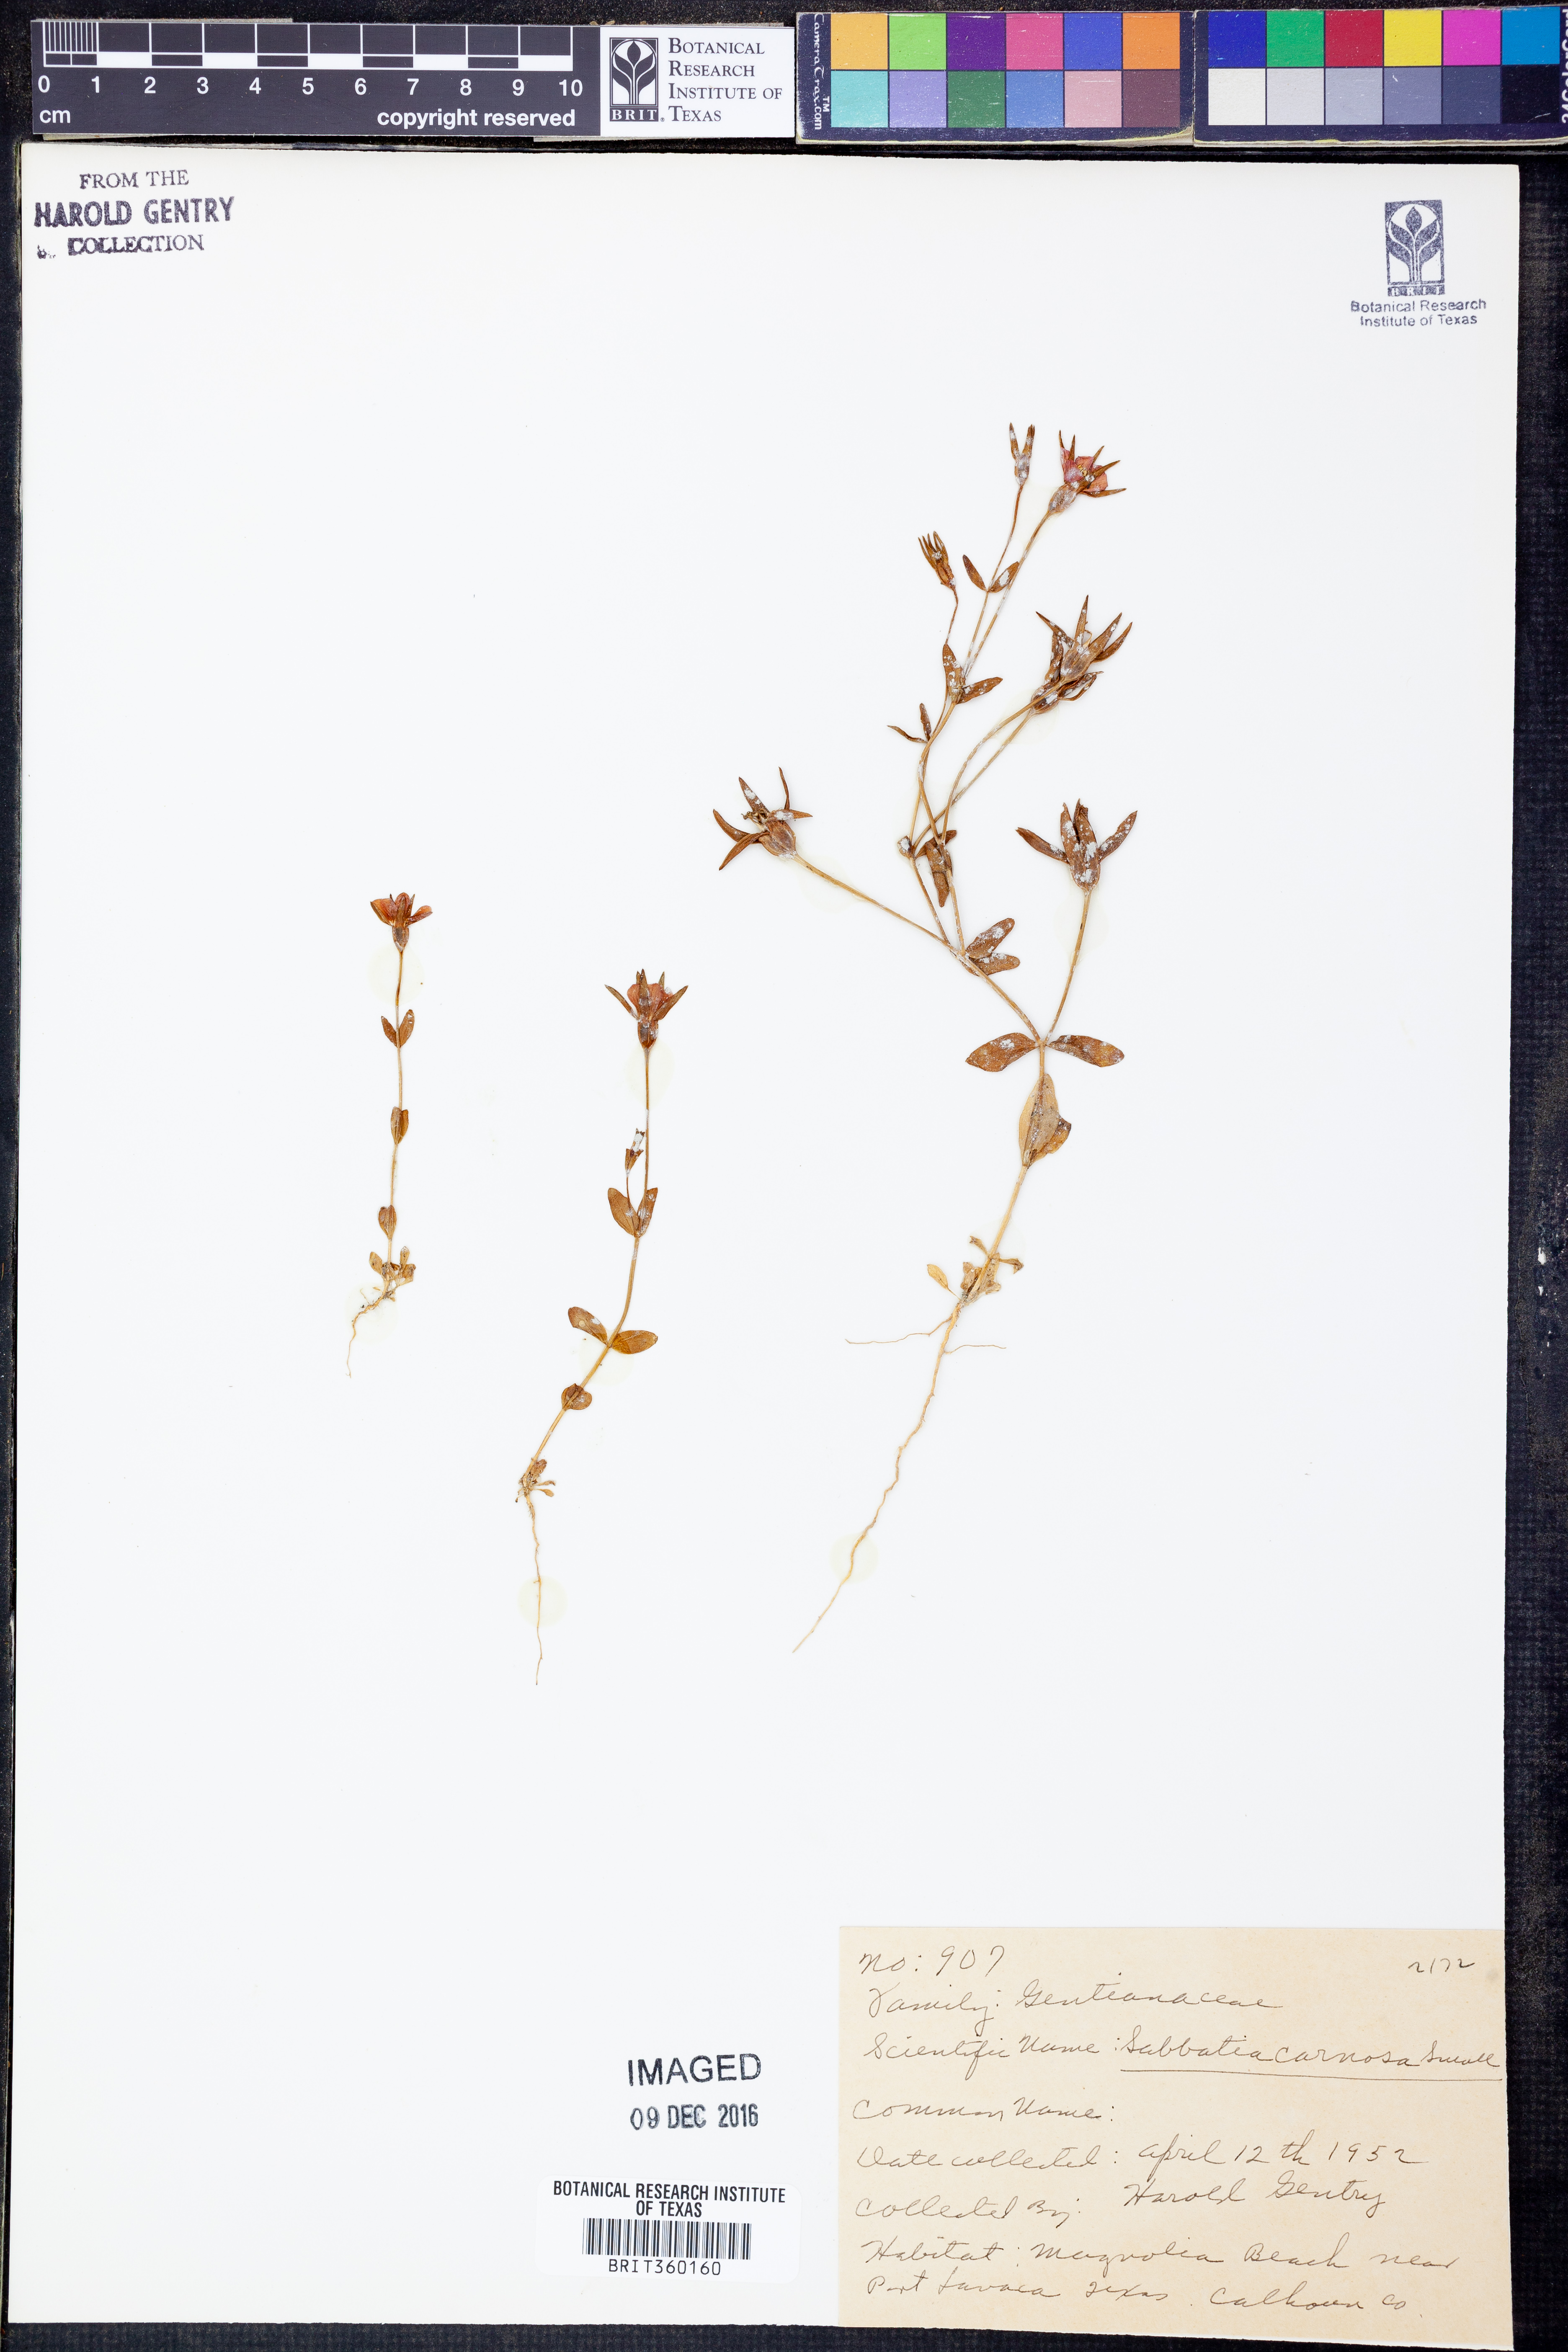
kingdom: Plantae
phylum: Tracheophyta
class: Magnoliopsida
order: Gentianales
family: Gentianaceae
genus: Sabatia
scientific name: Sabatia campestris
